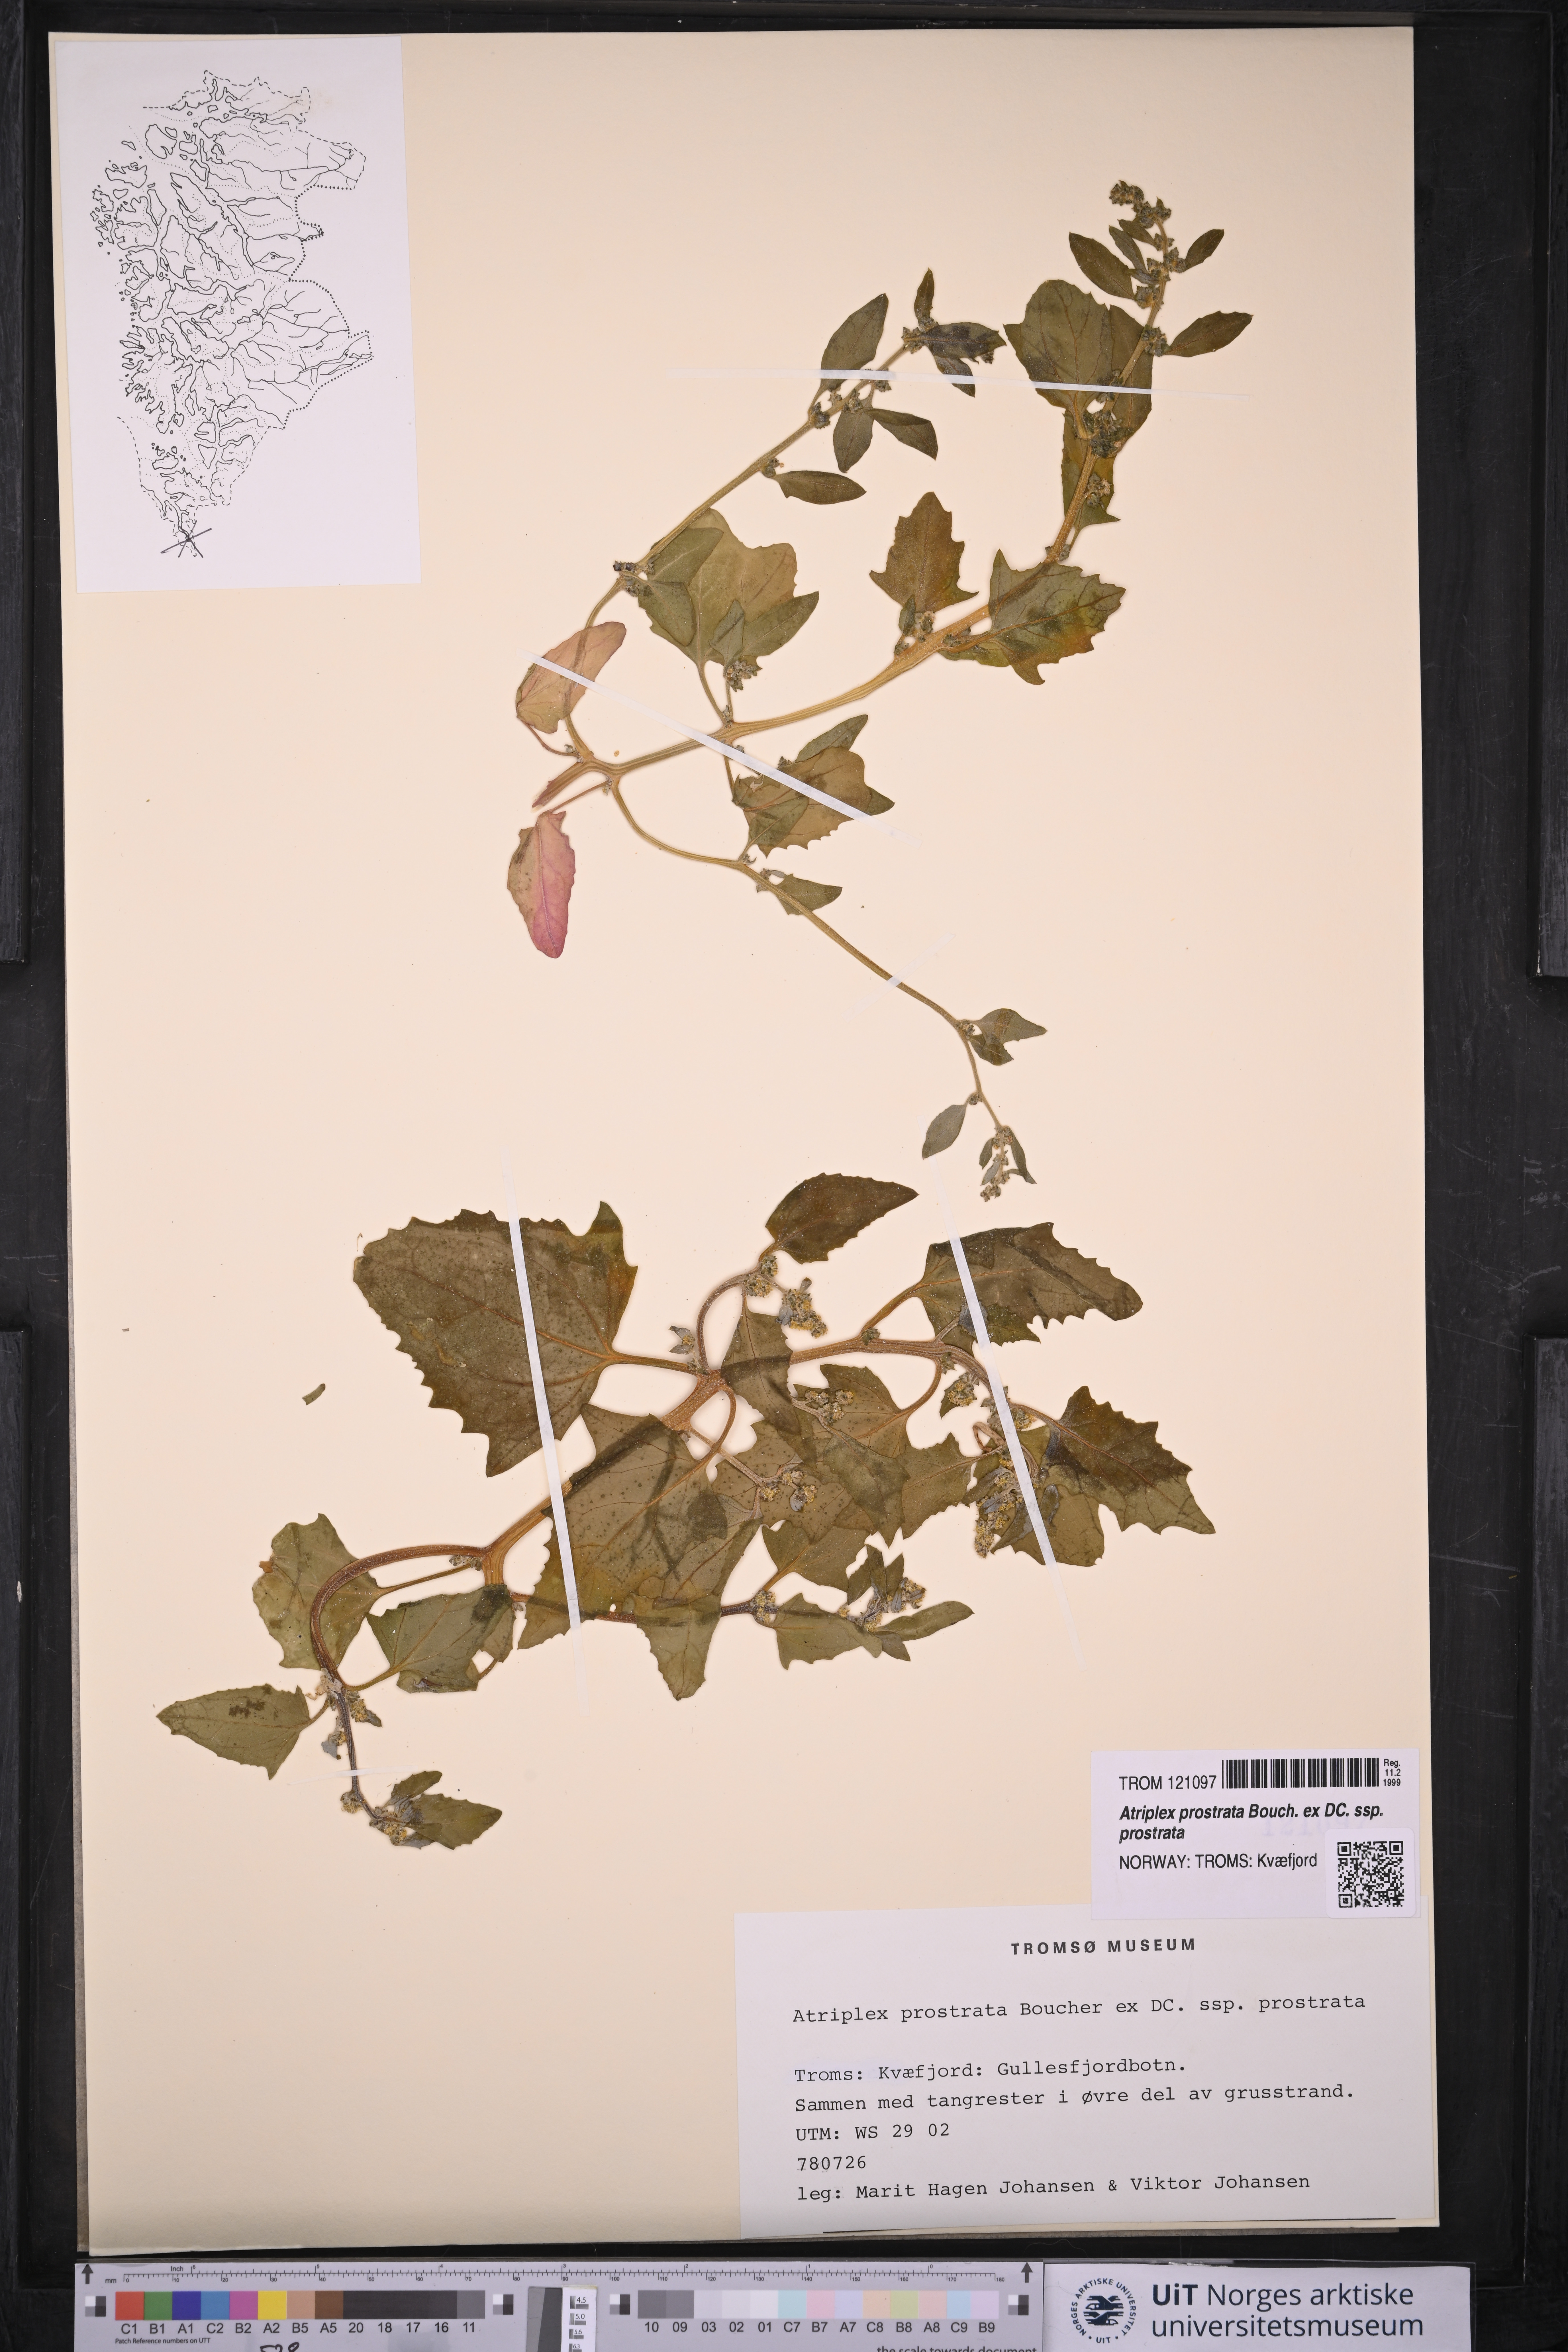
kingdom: Plantae
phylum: Tracheophyta
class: Magnoliopsida
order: Caryophyllales
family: Amaranthaceae
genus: Atriplex
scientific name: Atriplex prostrata
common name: Spear-leaved orache
